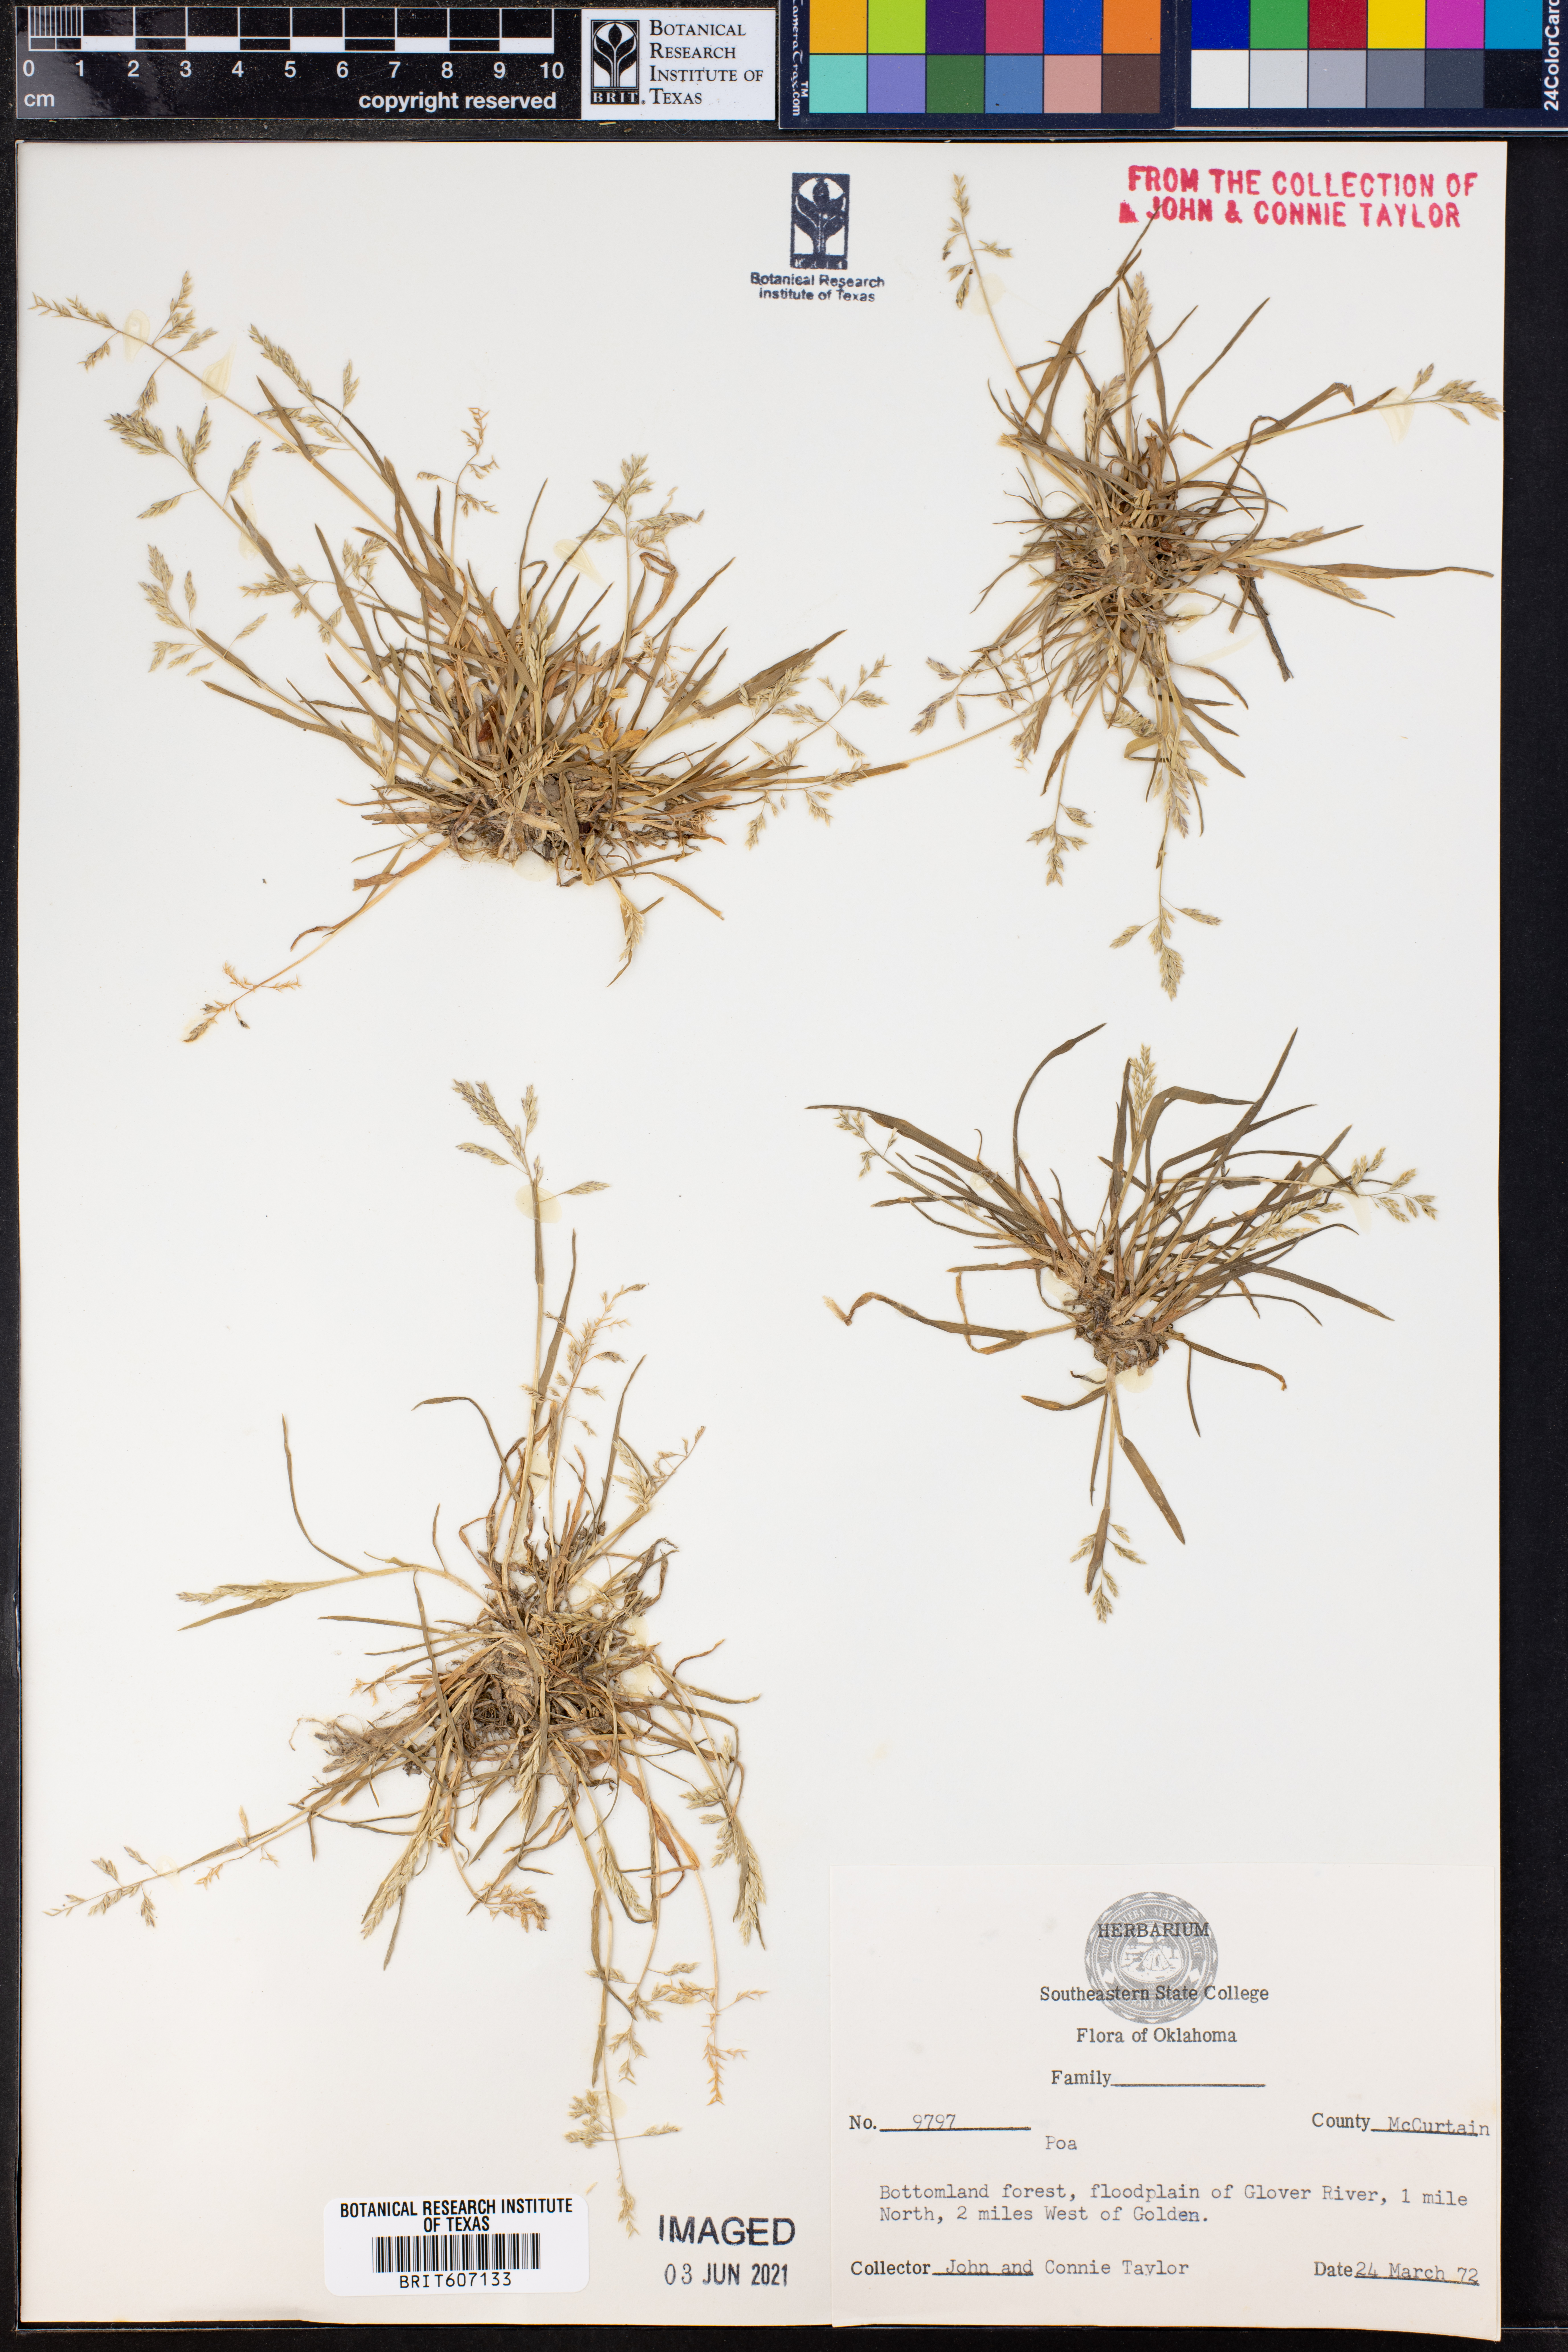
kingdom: Plantae
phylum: Tracheophyta
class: Liliopsida
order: Poales
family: Poaceae
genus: Poa
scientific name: Poa
